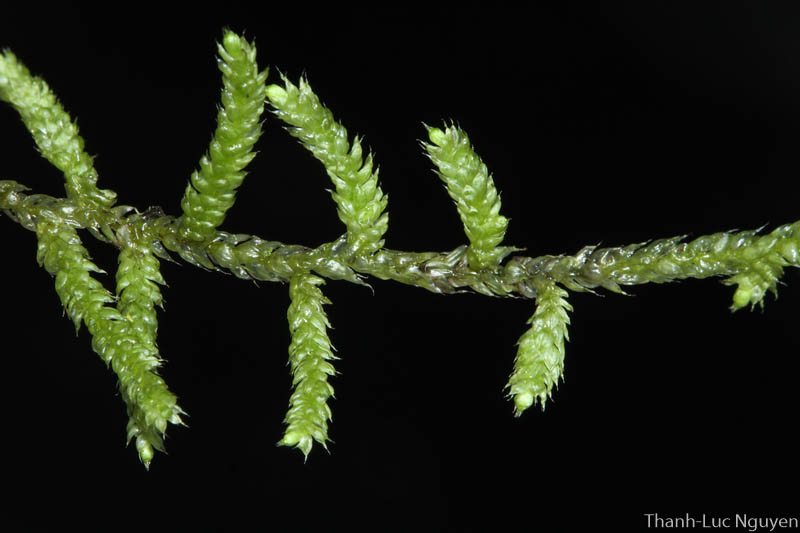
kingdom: Plantae
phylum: Bryophyta
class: Bryopsida
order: Hypnales
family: Meteoriaceae
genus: Cryptopapillaria
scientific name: Cryptopapillaria chrysoclada
